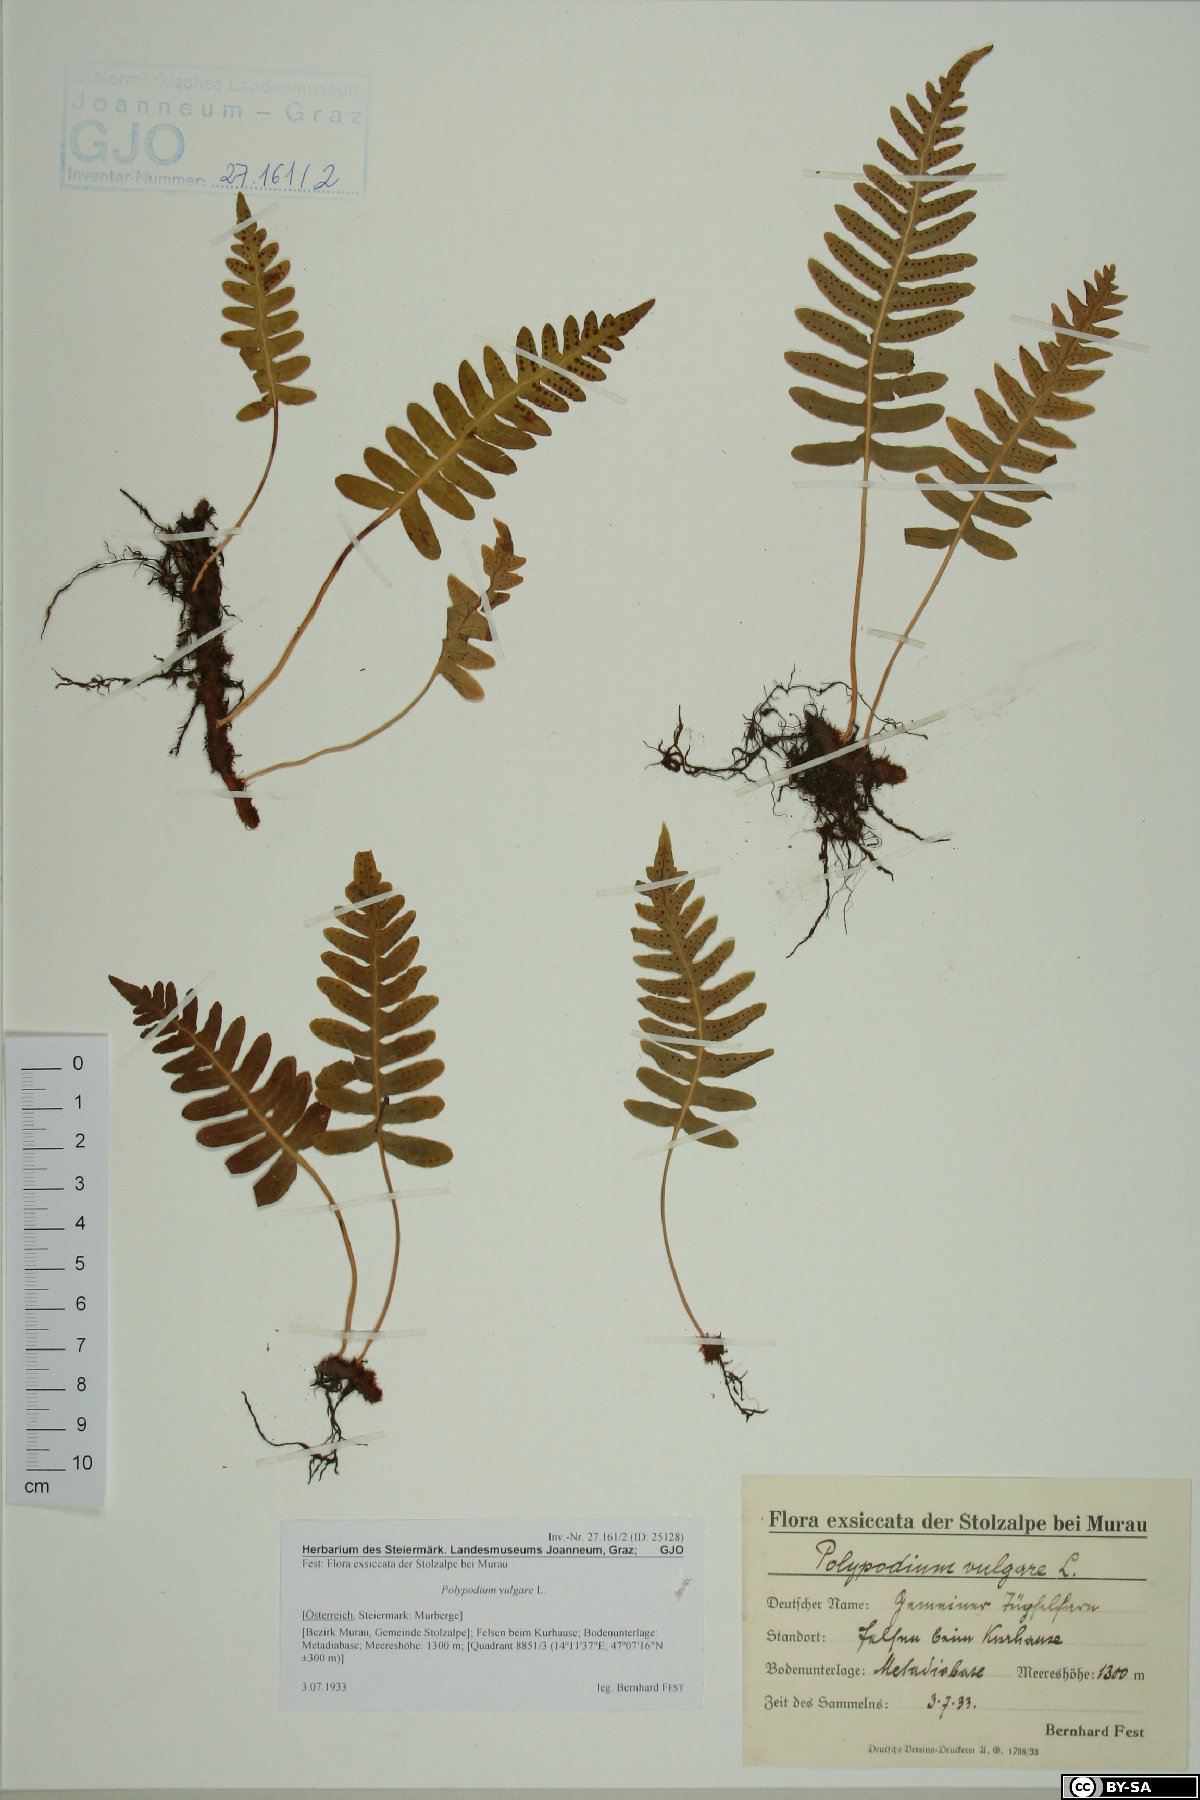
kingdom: Plantae
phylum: Tracheophyta
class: Polypodiopsida
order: Polypodiales
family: Polypodiaceae
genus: Polypodium
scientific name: Polypodium vulgare
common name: Common polypody
